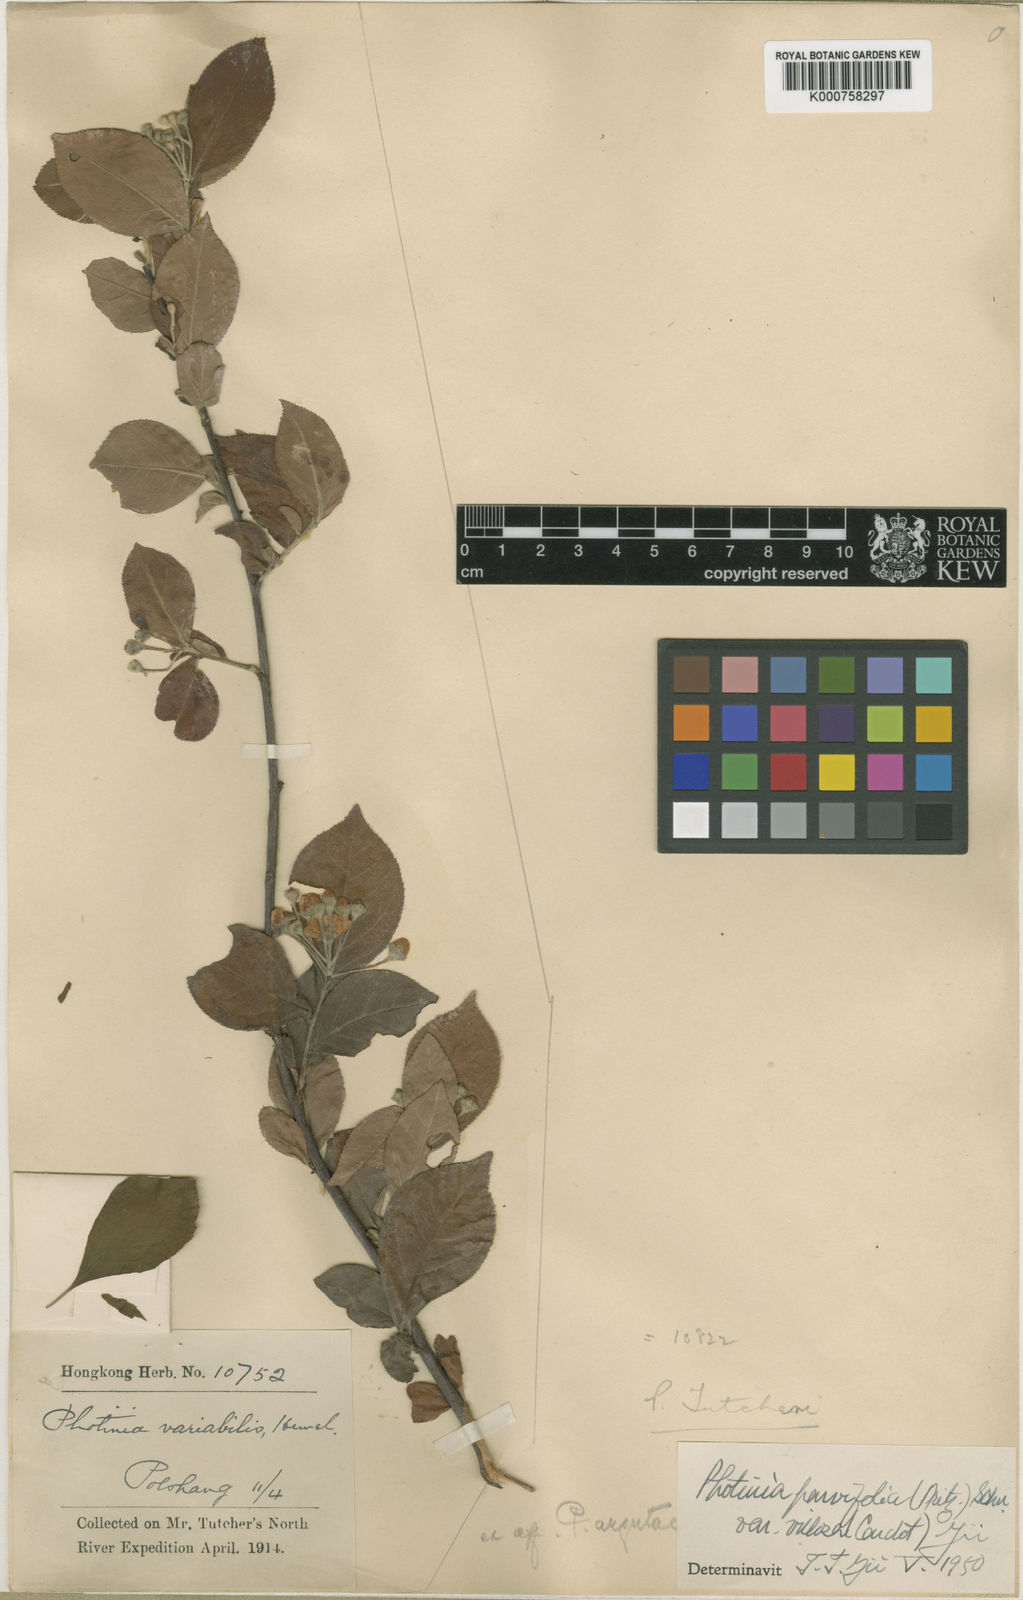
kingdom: Plantae
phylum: Tracheophyta
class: Magnoliopsida
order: Rosales
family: Rosaceae
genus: Pourthiaea
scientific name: Pourthiaea parviflora
